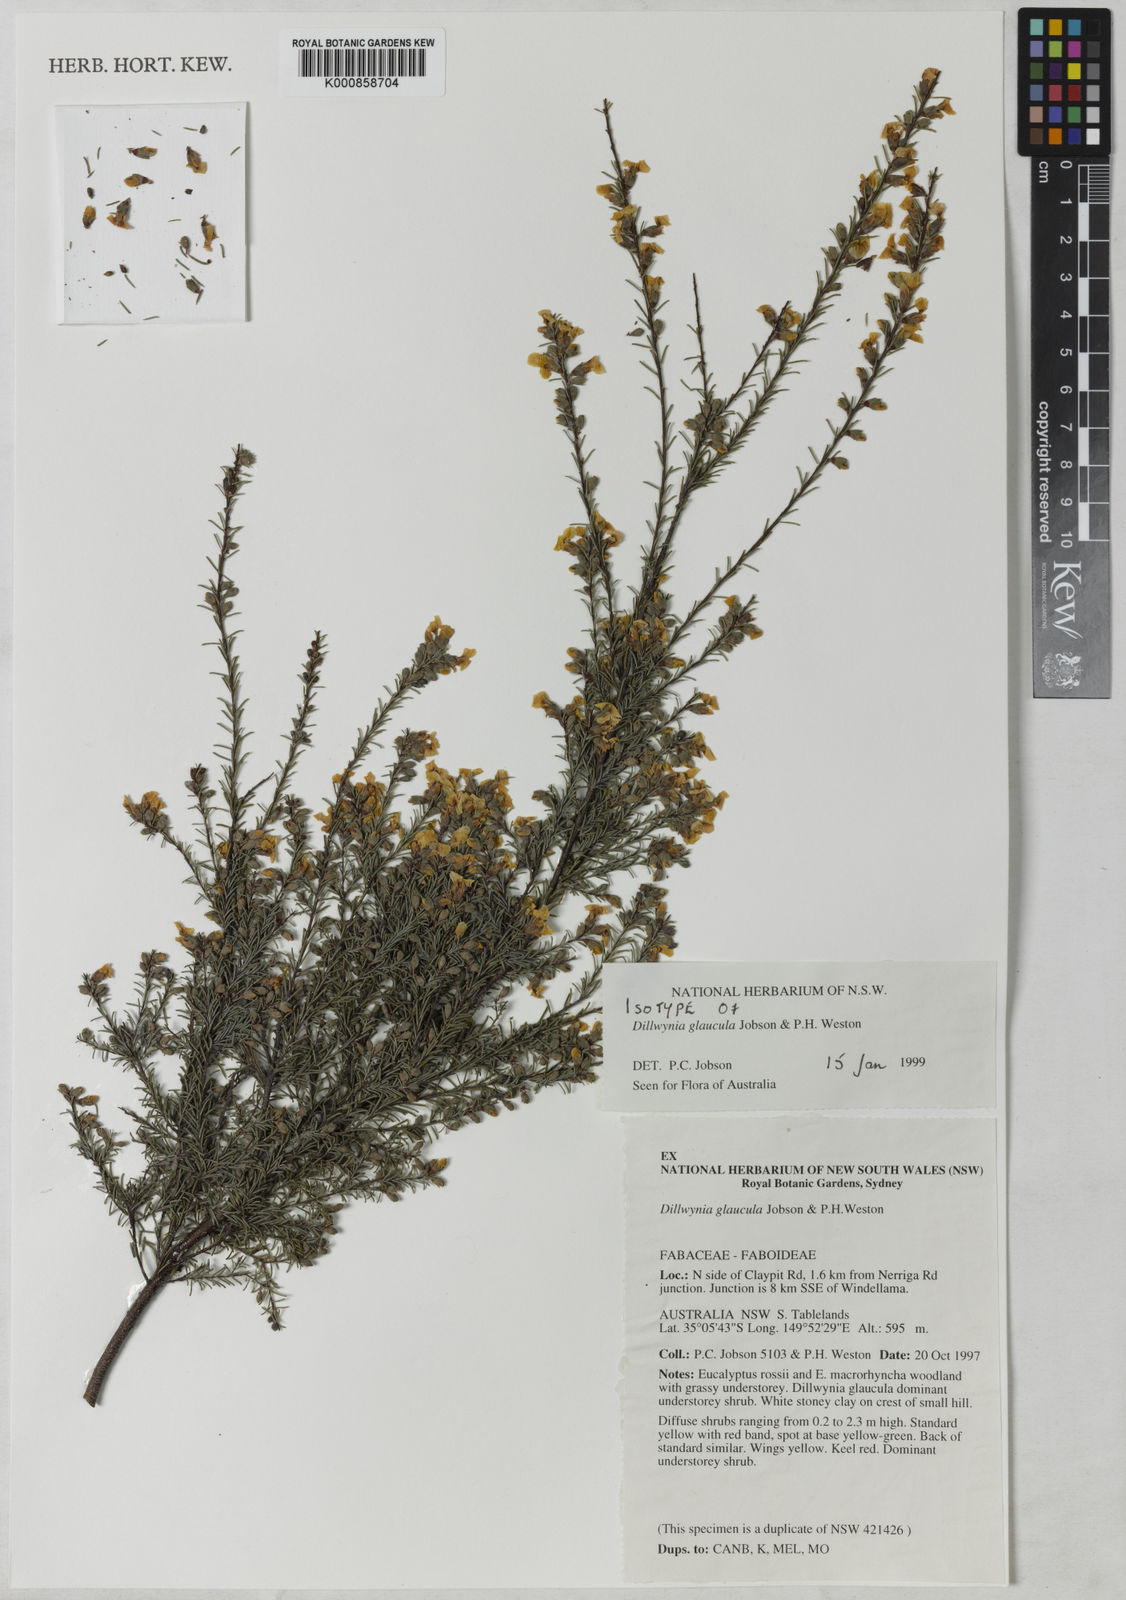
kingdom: Plantae
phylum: Tracheophyta
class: Magnoliopsida
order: Fabales
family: Fabaceae
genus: Dillwynia
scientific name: Dillwynia glaucula
